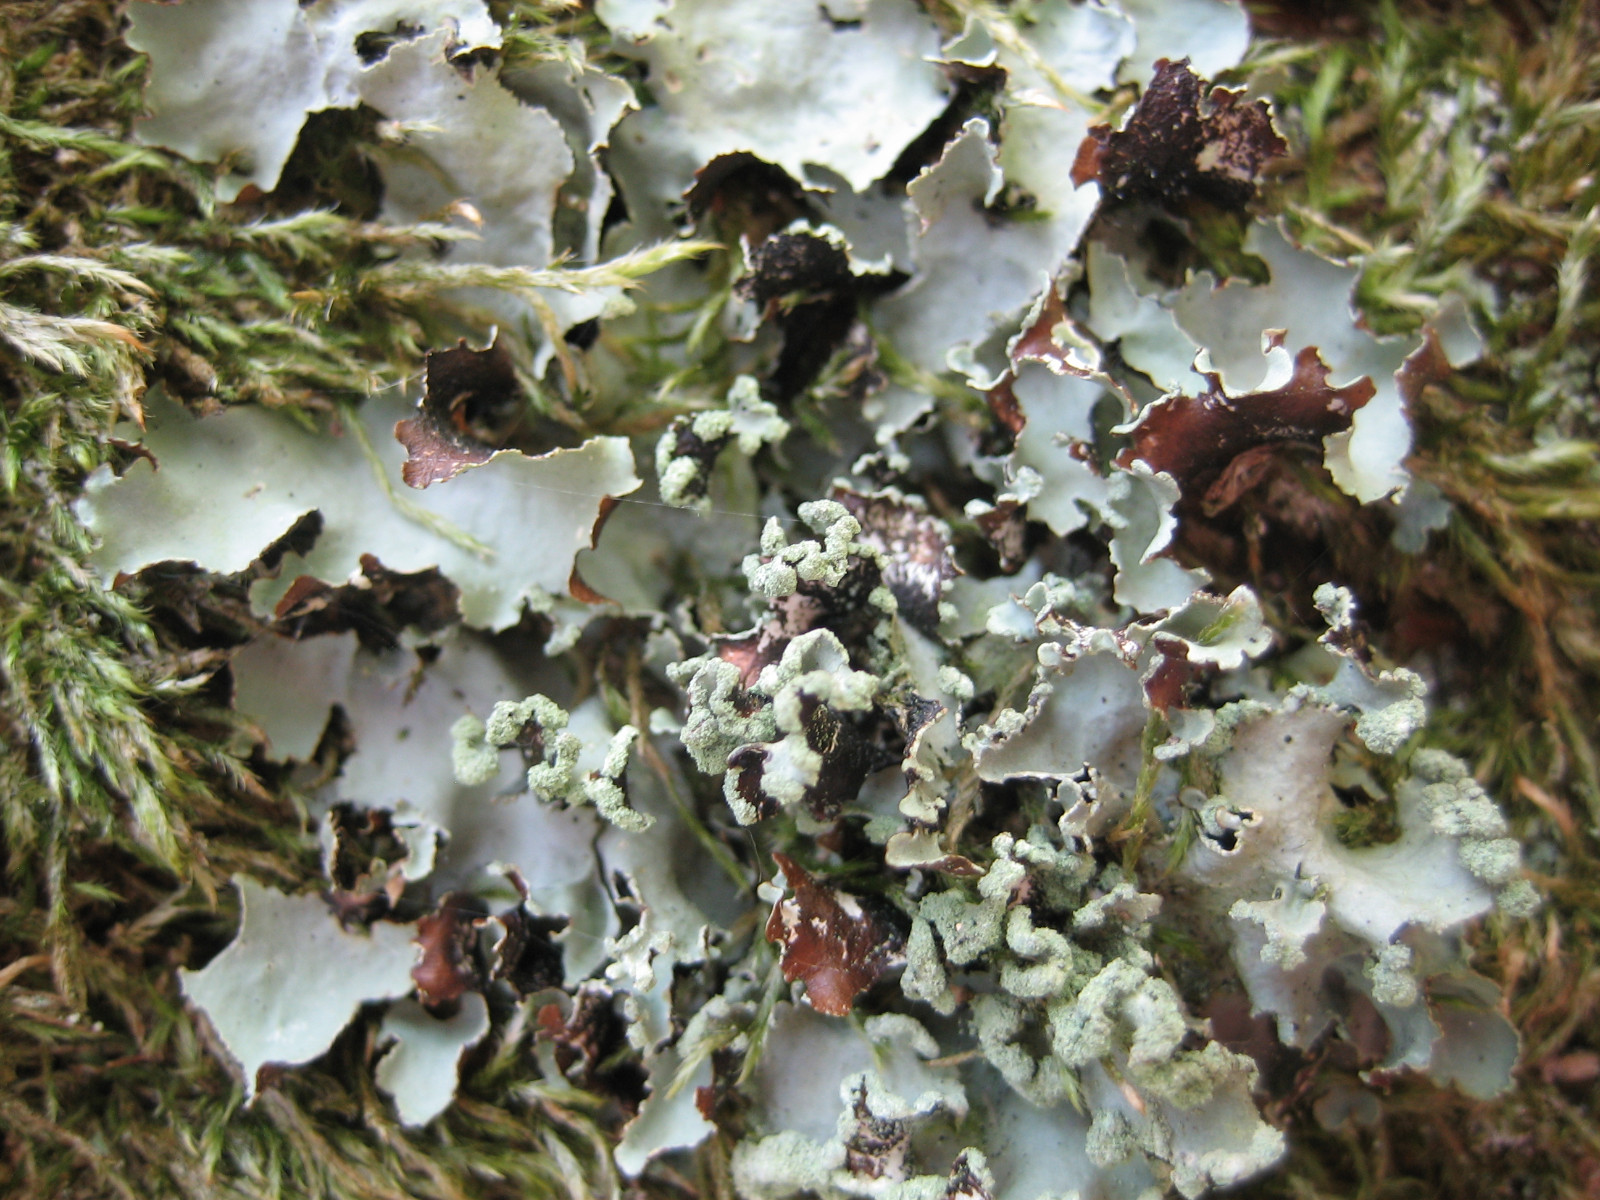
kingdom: Fungi
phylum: Ascomycota
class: Lecanoromycetes
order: Lecanorales
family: Parmeliaceae
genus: Parmotrema
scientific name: Parmotrema perlatum
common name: trådet skållav
